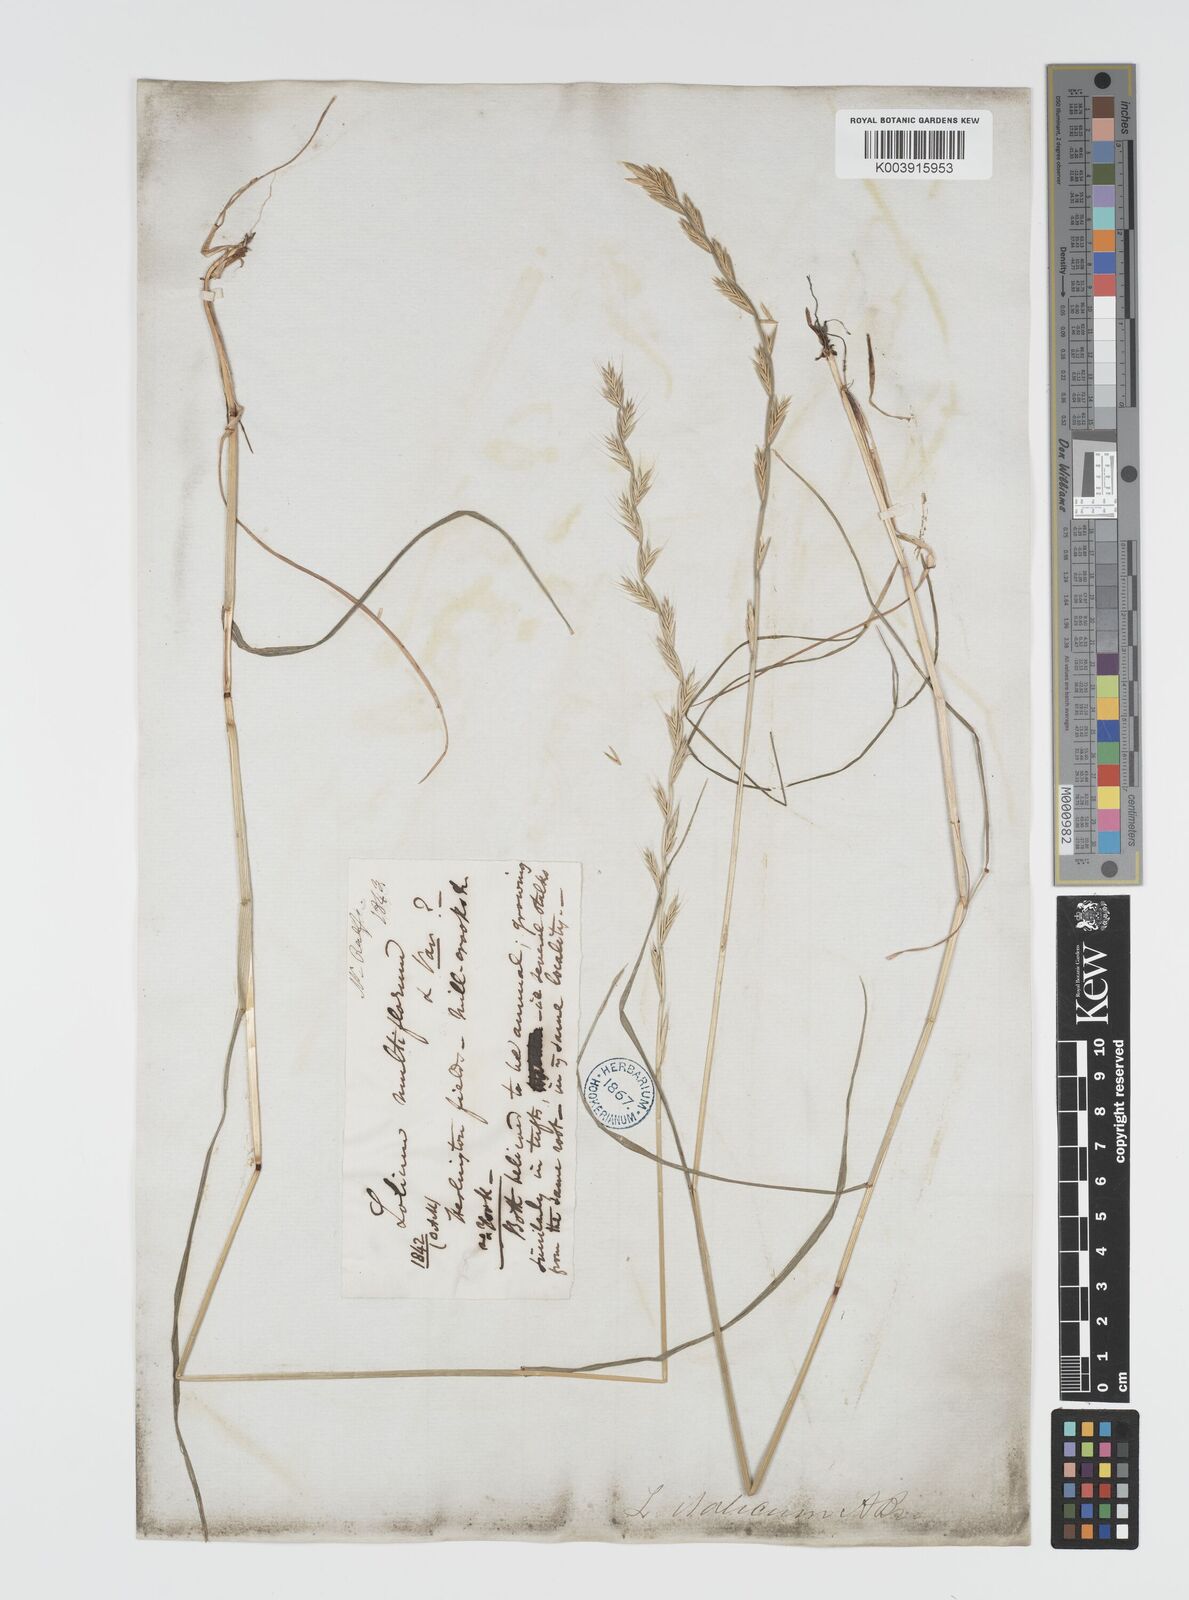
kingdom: Plantae
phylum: Tracheophyta
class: Liliopsida
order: Poales
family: Poaceae
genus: Lolium
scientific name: Lolium multiflorum
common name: Annual ryegrass
